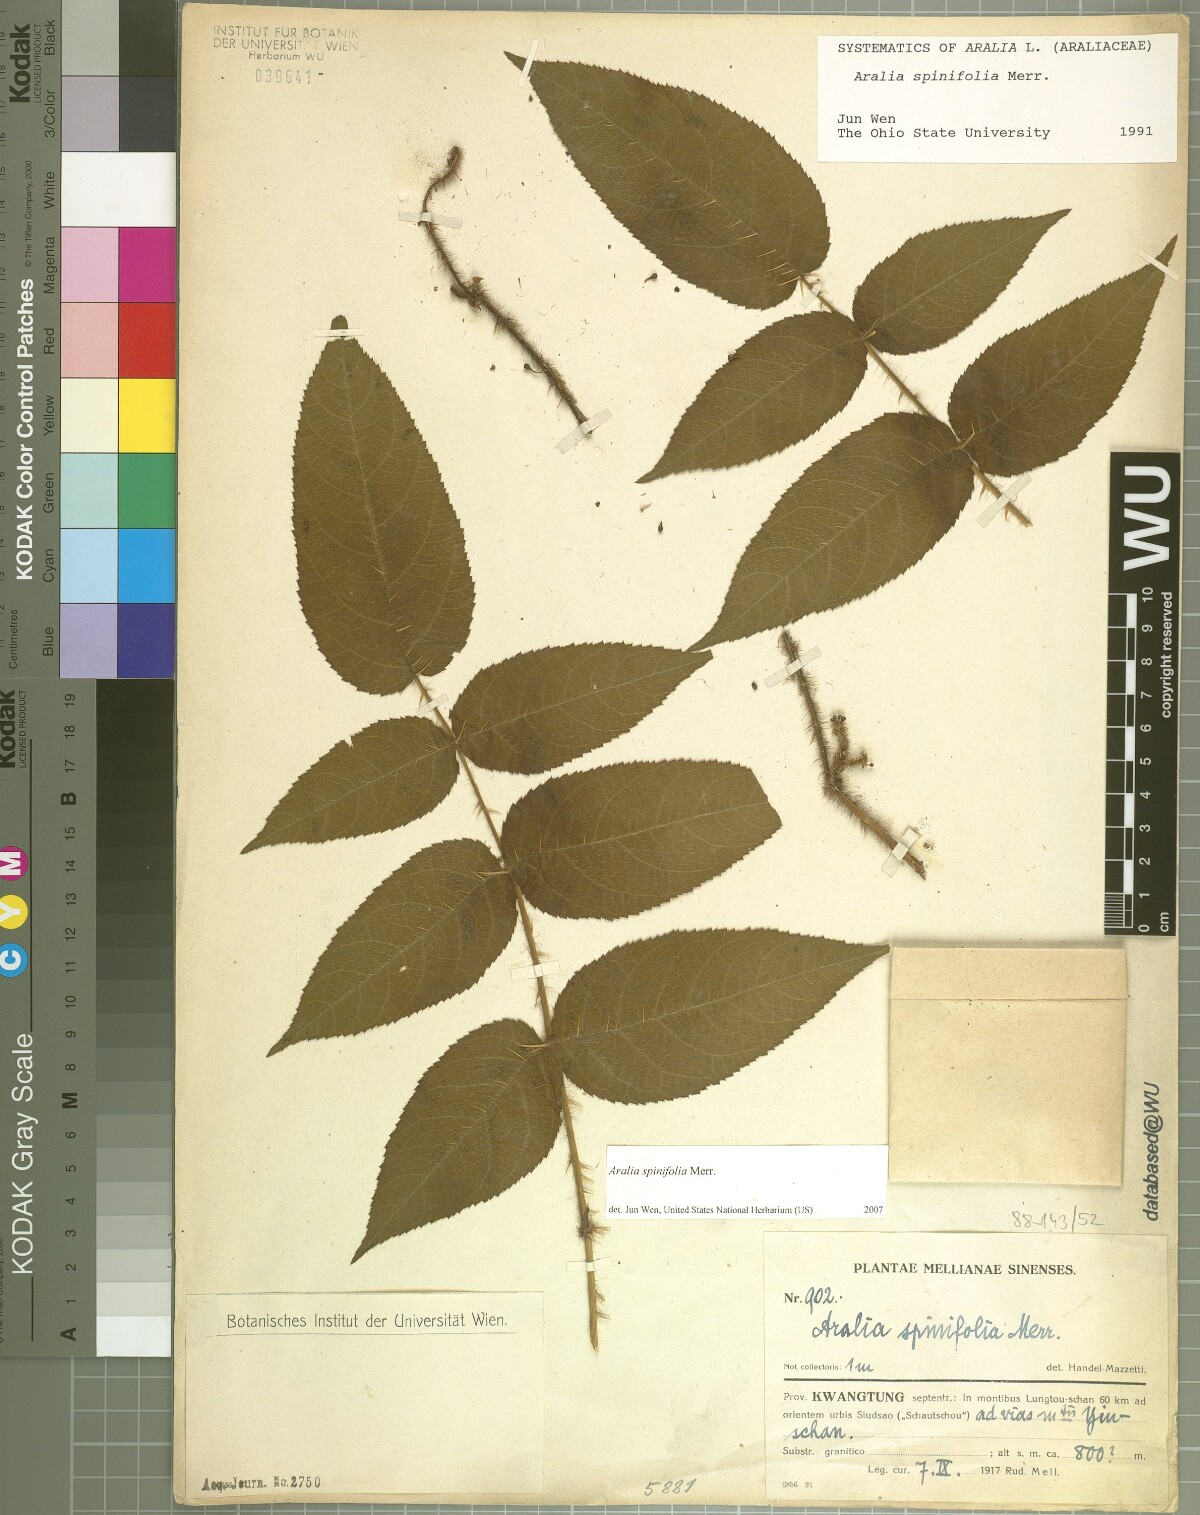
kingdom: Plantae
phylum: Tracheophyta
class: Magnoliopsida
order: Apiales
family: Araliaceae
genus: Aralia
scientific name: Aralia spinifolia
